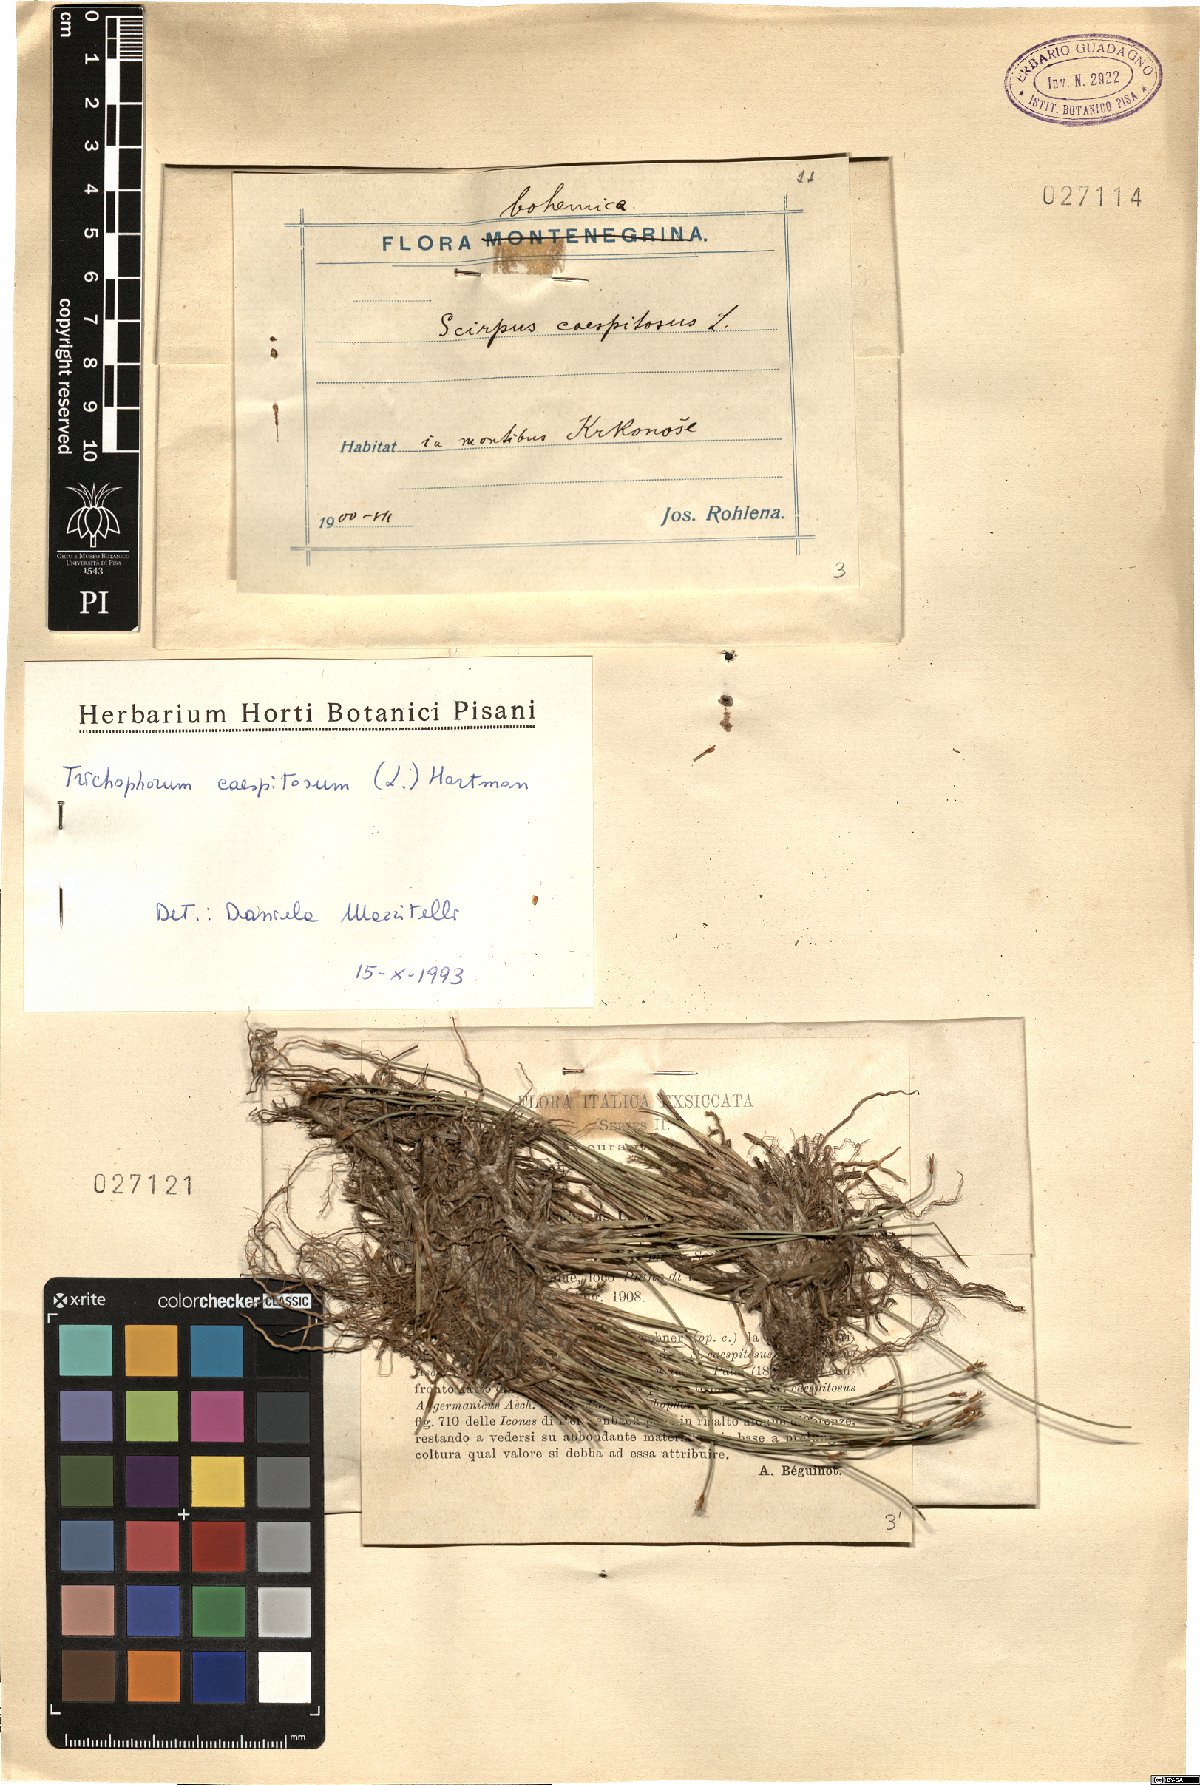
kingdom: Plantae
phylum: Tracheophyta
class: Liliopsida
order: Poales
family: Cyperaceae
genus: Trichophorum
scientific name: Trichophorum cespitosum
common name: Cespitose bulrush
